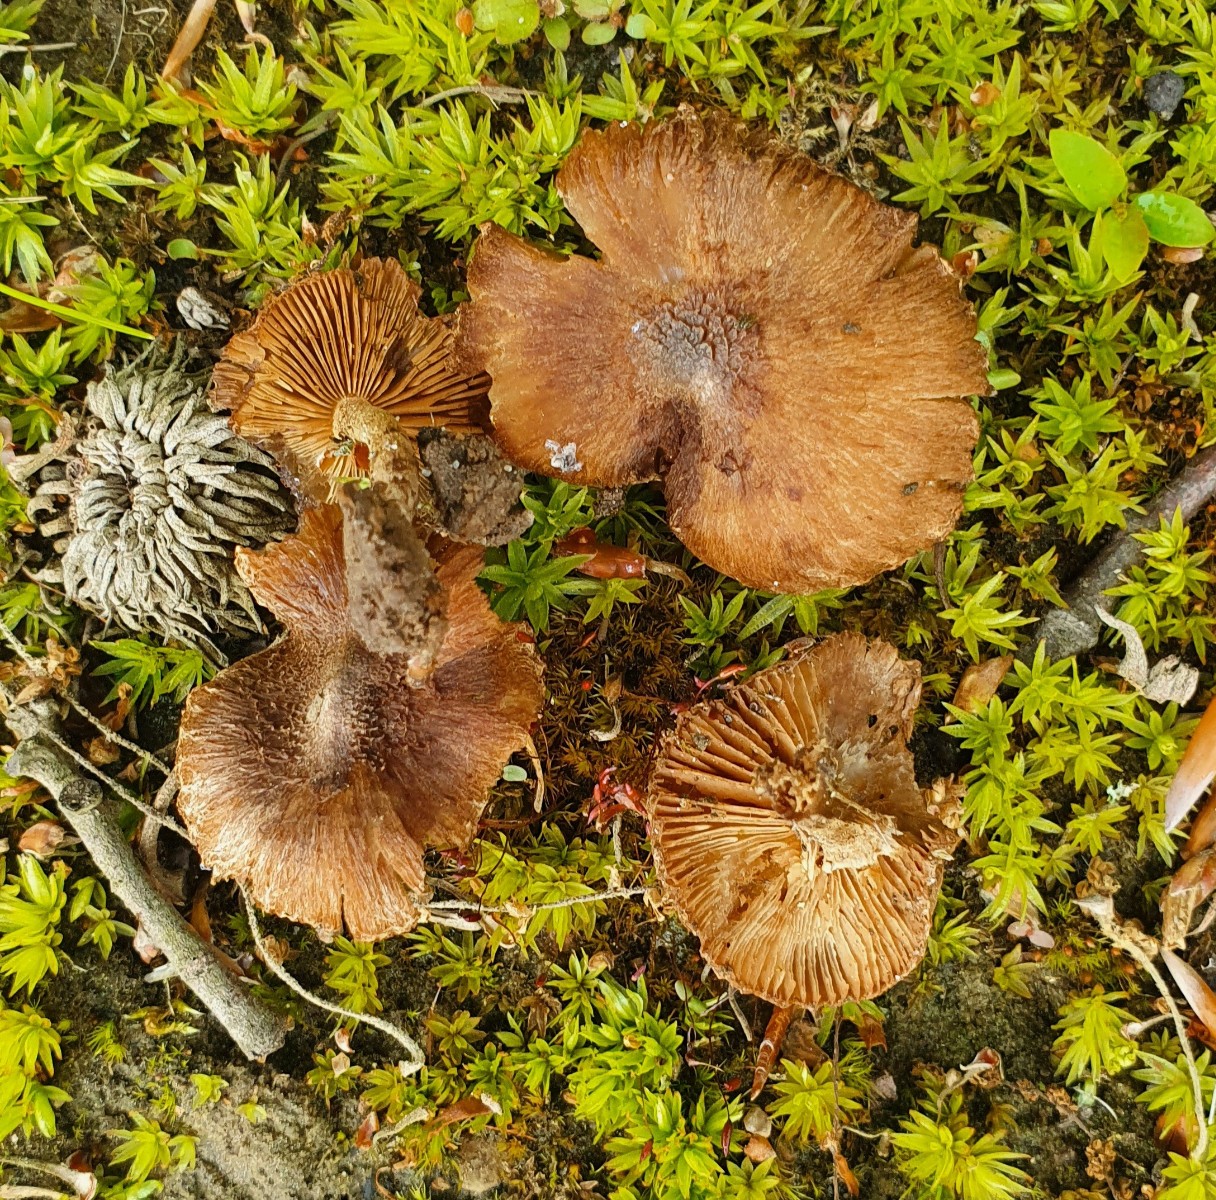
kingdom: Fungi
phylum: Basidiomycota
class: Agaricomycetes
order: Agaricales
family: Inocybaceae
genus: Inocybe
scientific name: Inocybe lacera
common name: laset trævlhat
